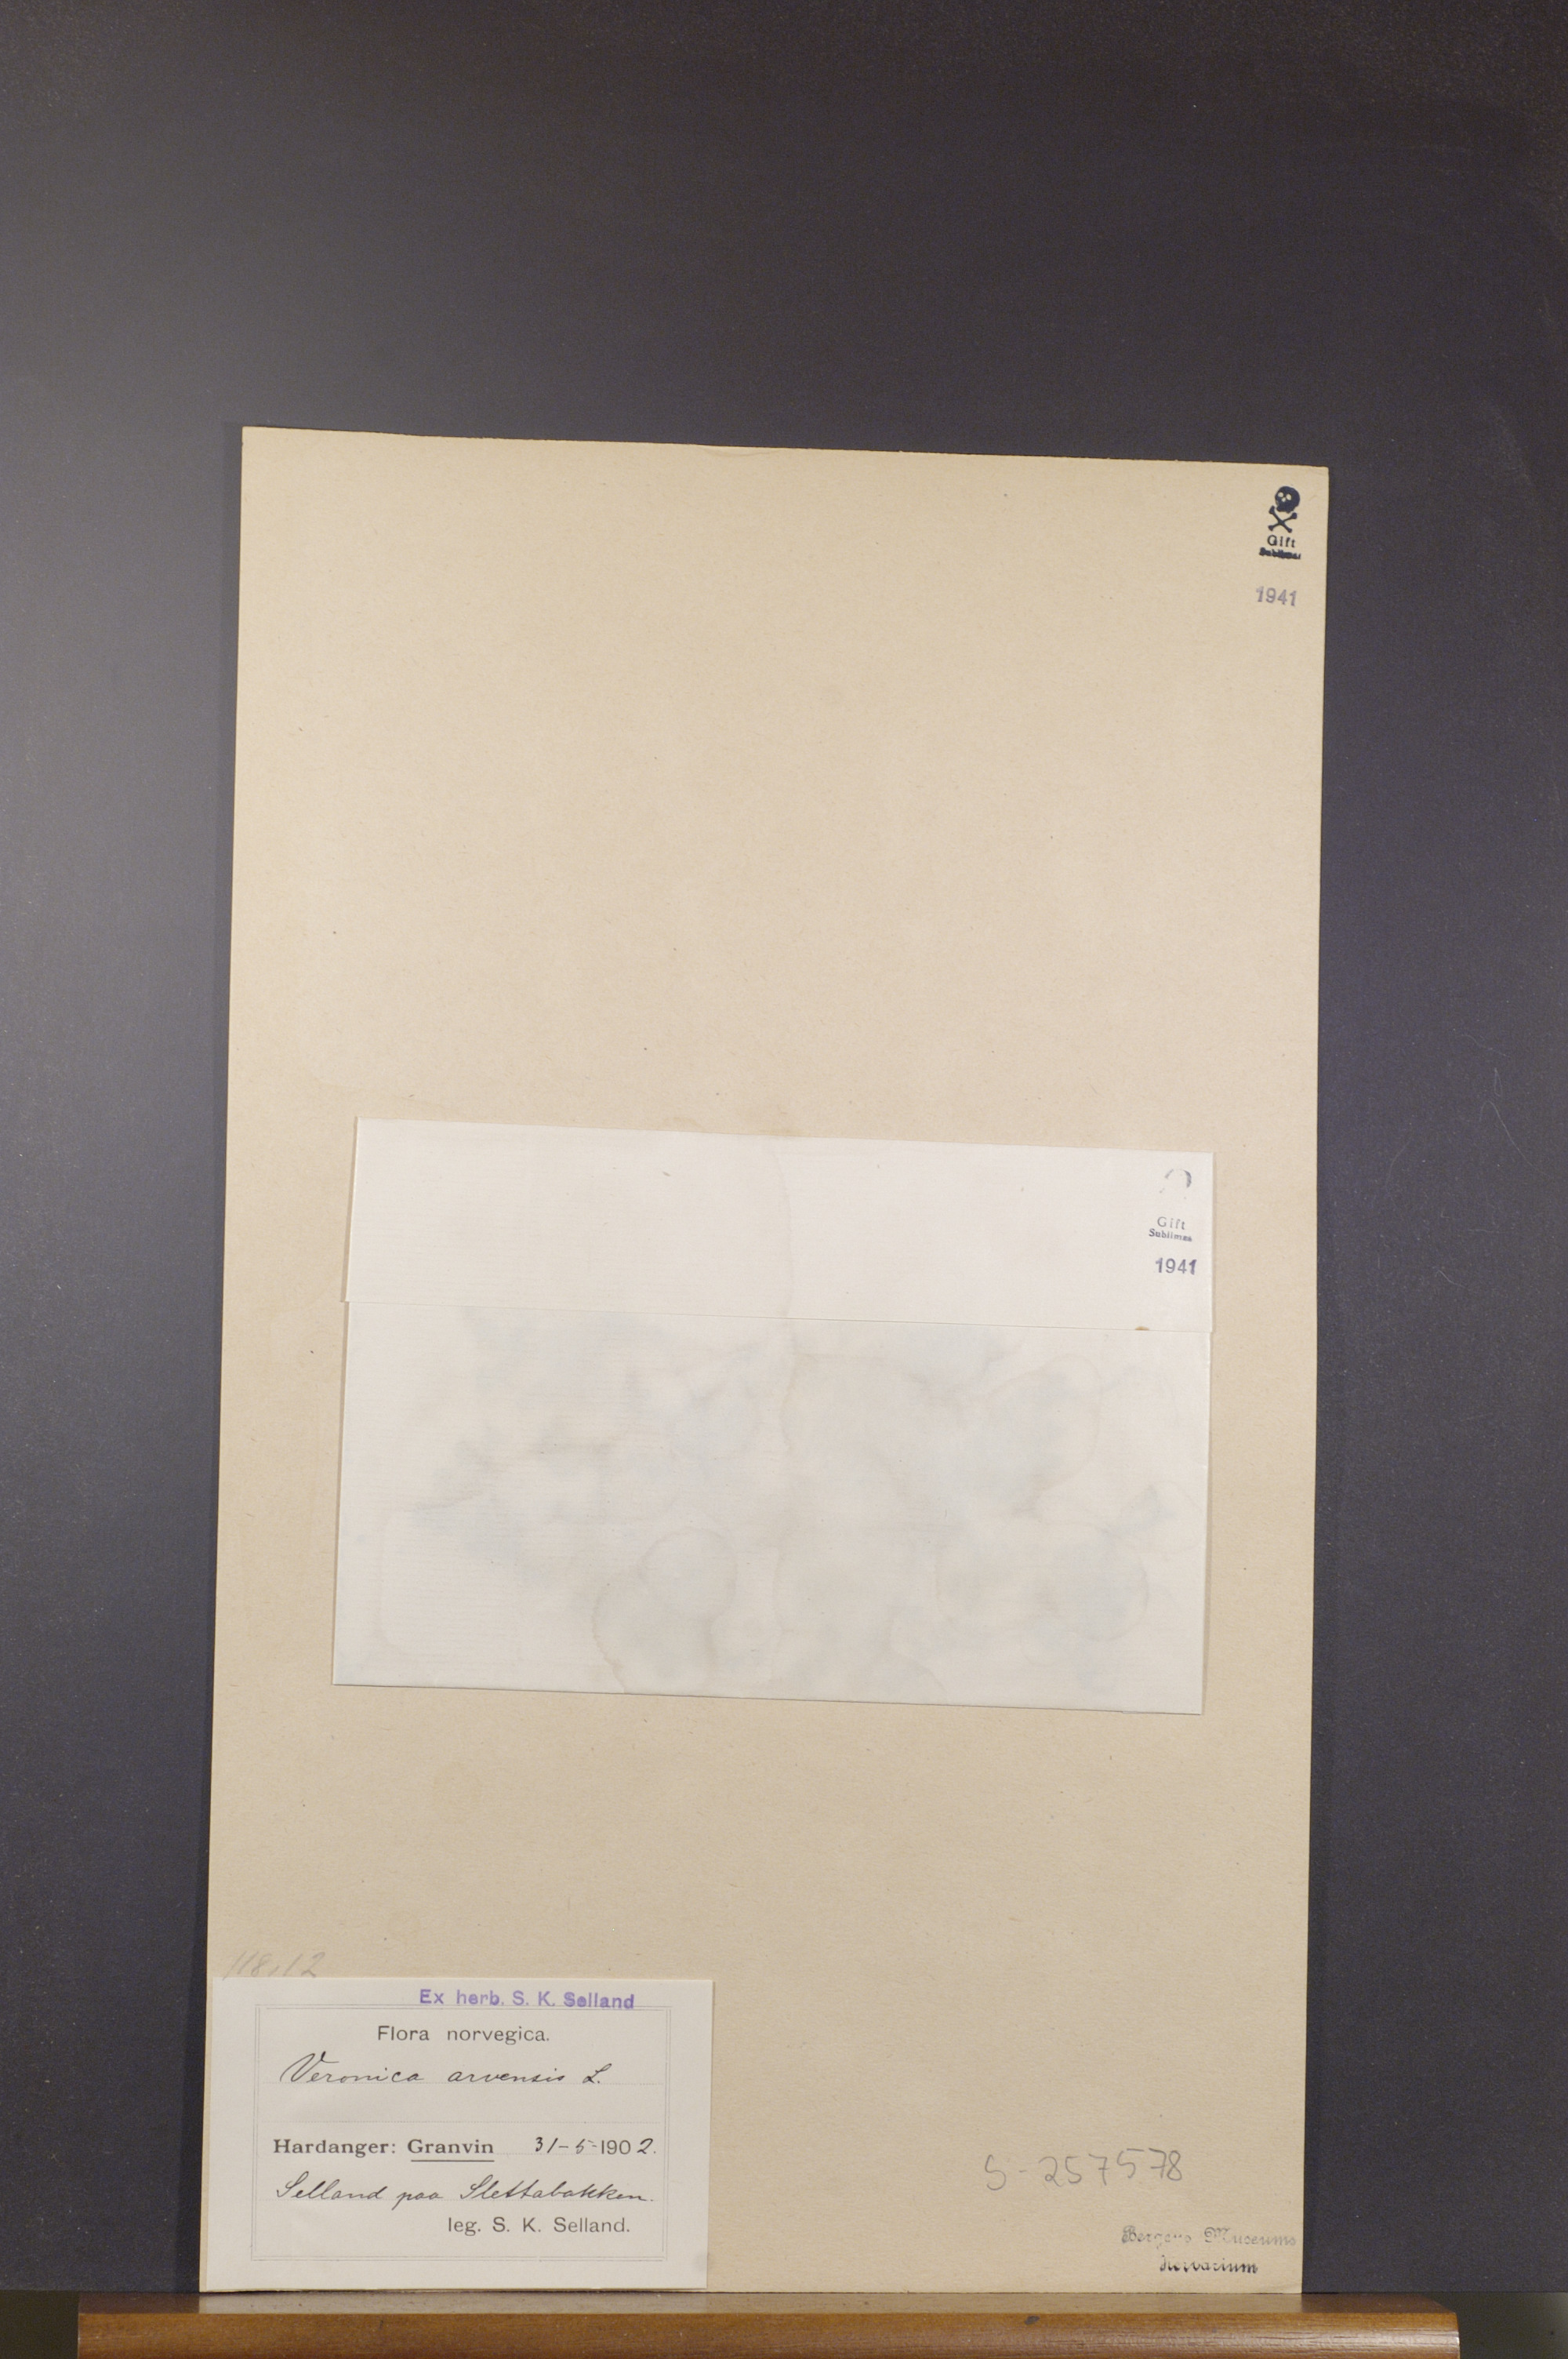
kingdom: Plantae
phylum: Tracheophyta
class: Magnoliopsida
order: Lamiales
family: Plantaginaceae
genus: Veronica
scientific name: Veronica arvensis
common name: Corn speedwell
